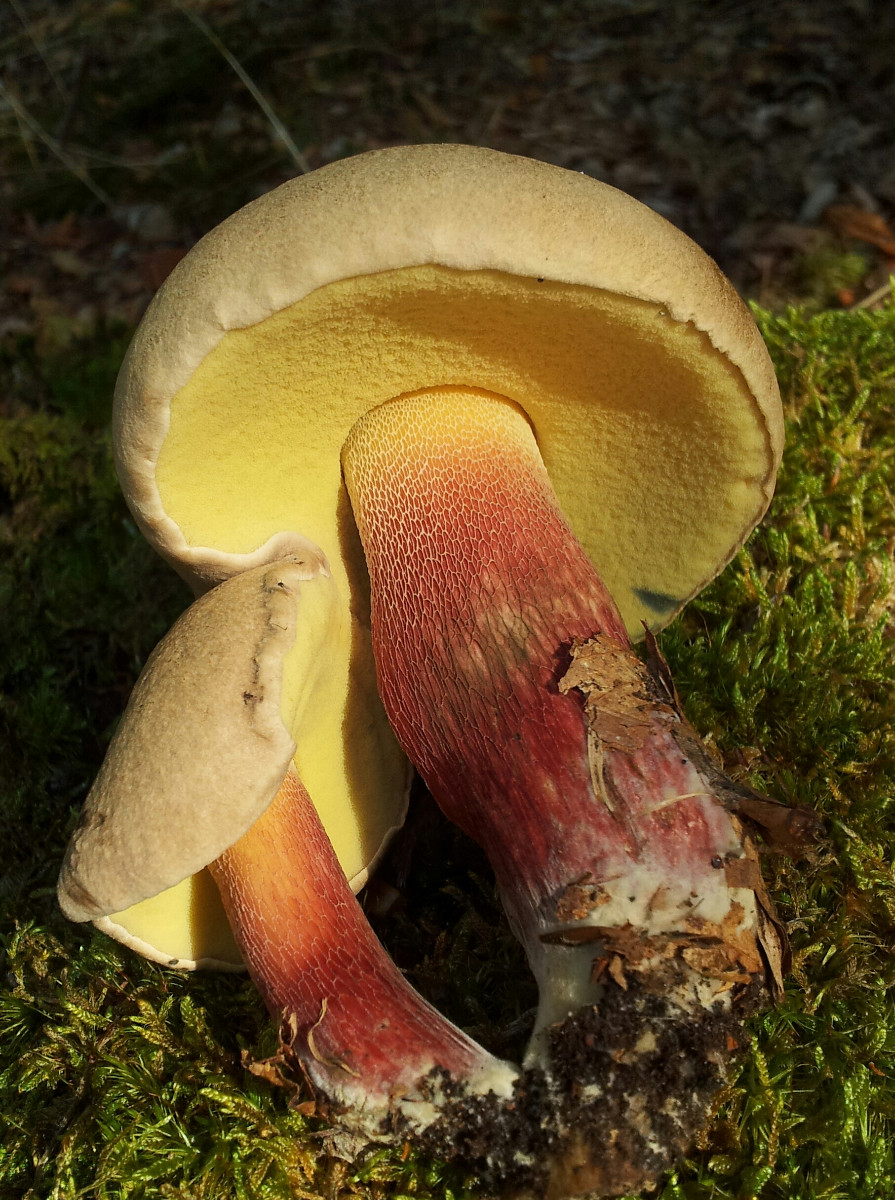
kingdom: Fungi
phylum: Basidiomycota
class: Agaricomycetes
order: Boletales
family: Boletaceae
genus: Caloboletus
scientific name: Caloboletus calopus
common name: skønfodet rørhat
